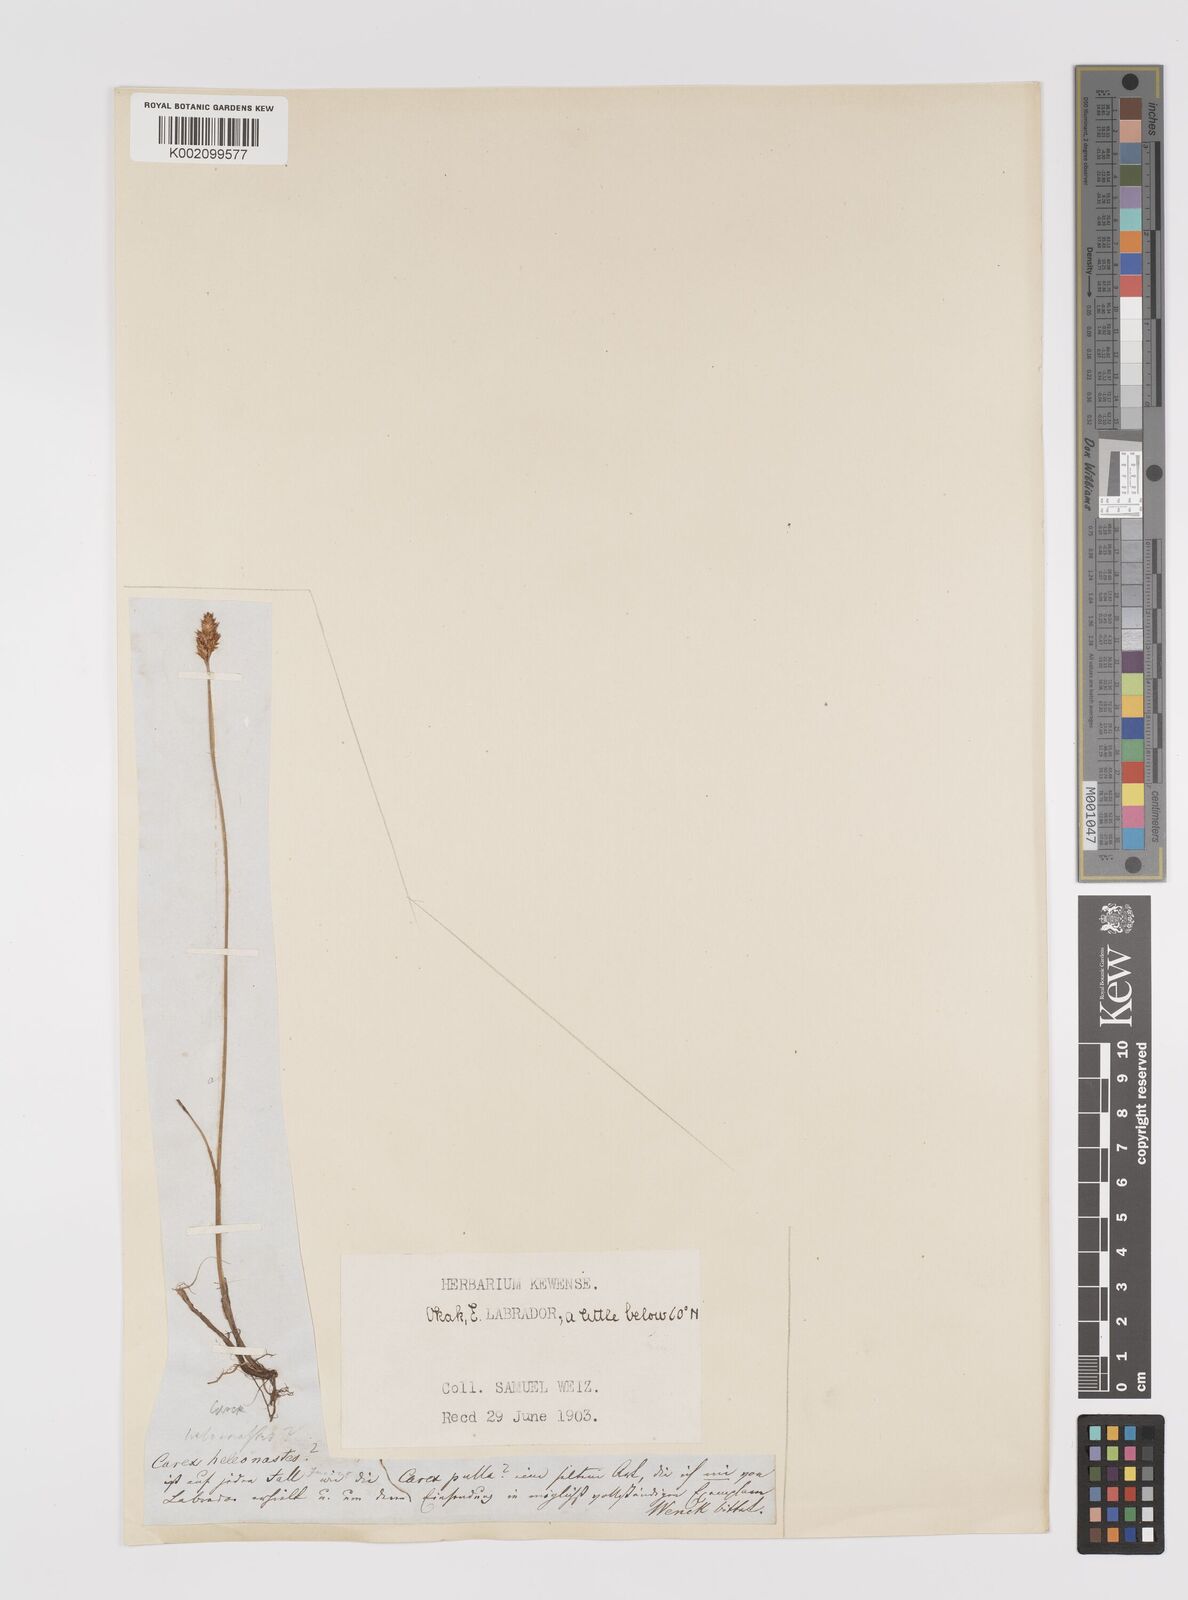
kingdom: Plantae
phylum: Tracheophyta
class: Liliopsida
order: Poales
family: Cyperaceae
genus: Carex
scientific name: Carex heleonastes
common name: Hudson bay sedge
